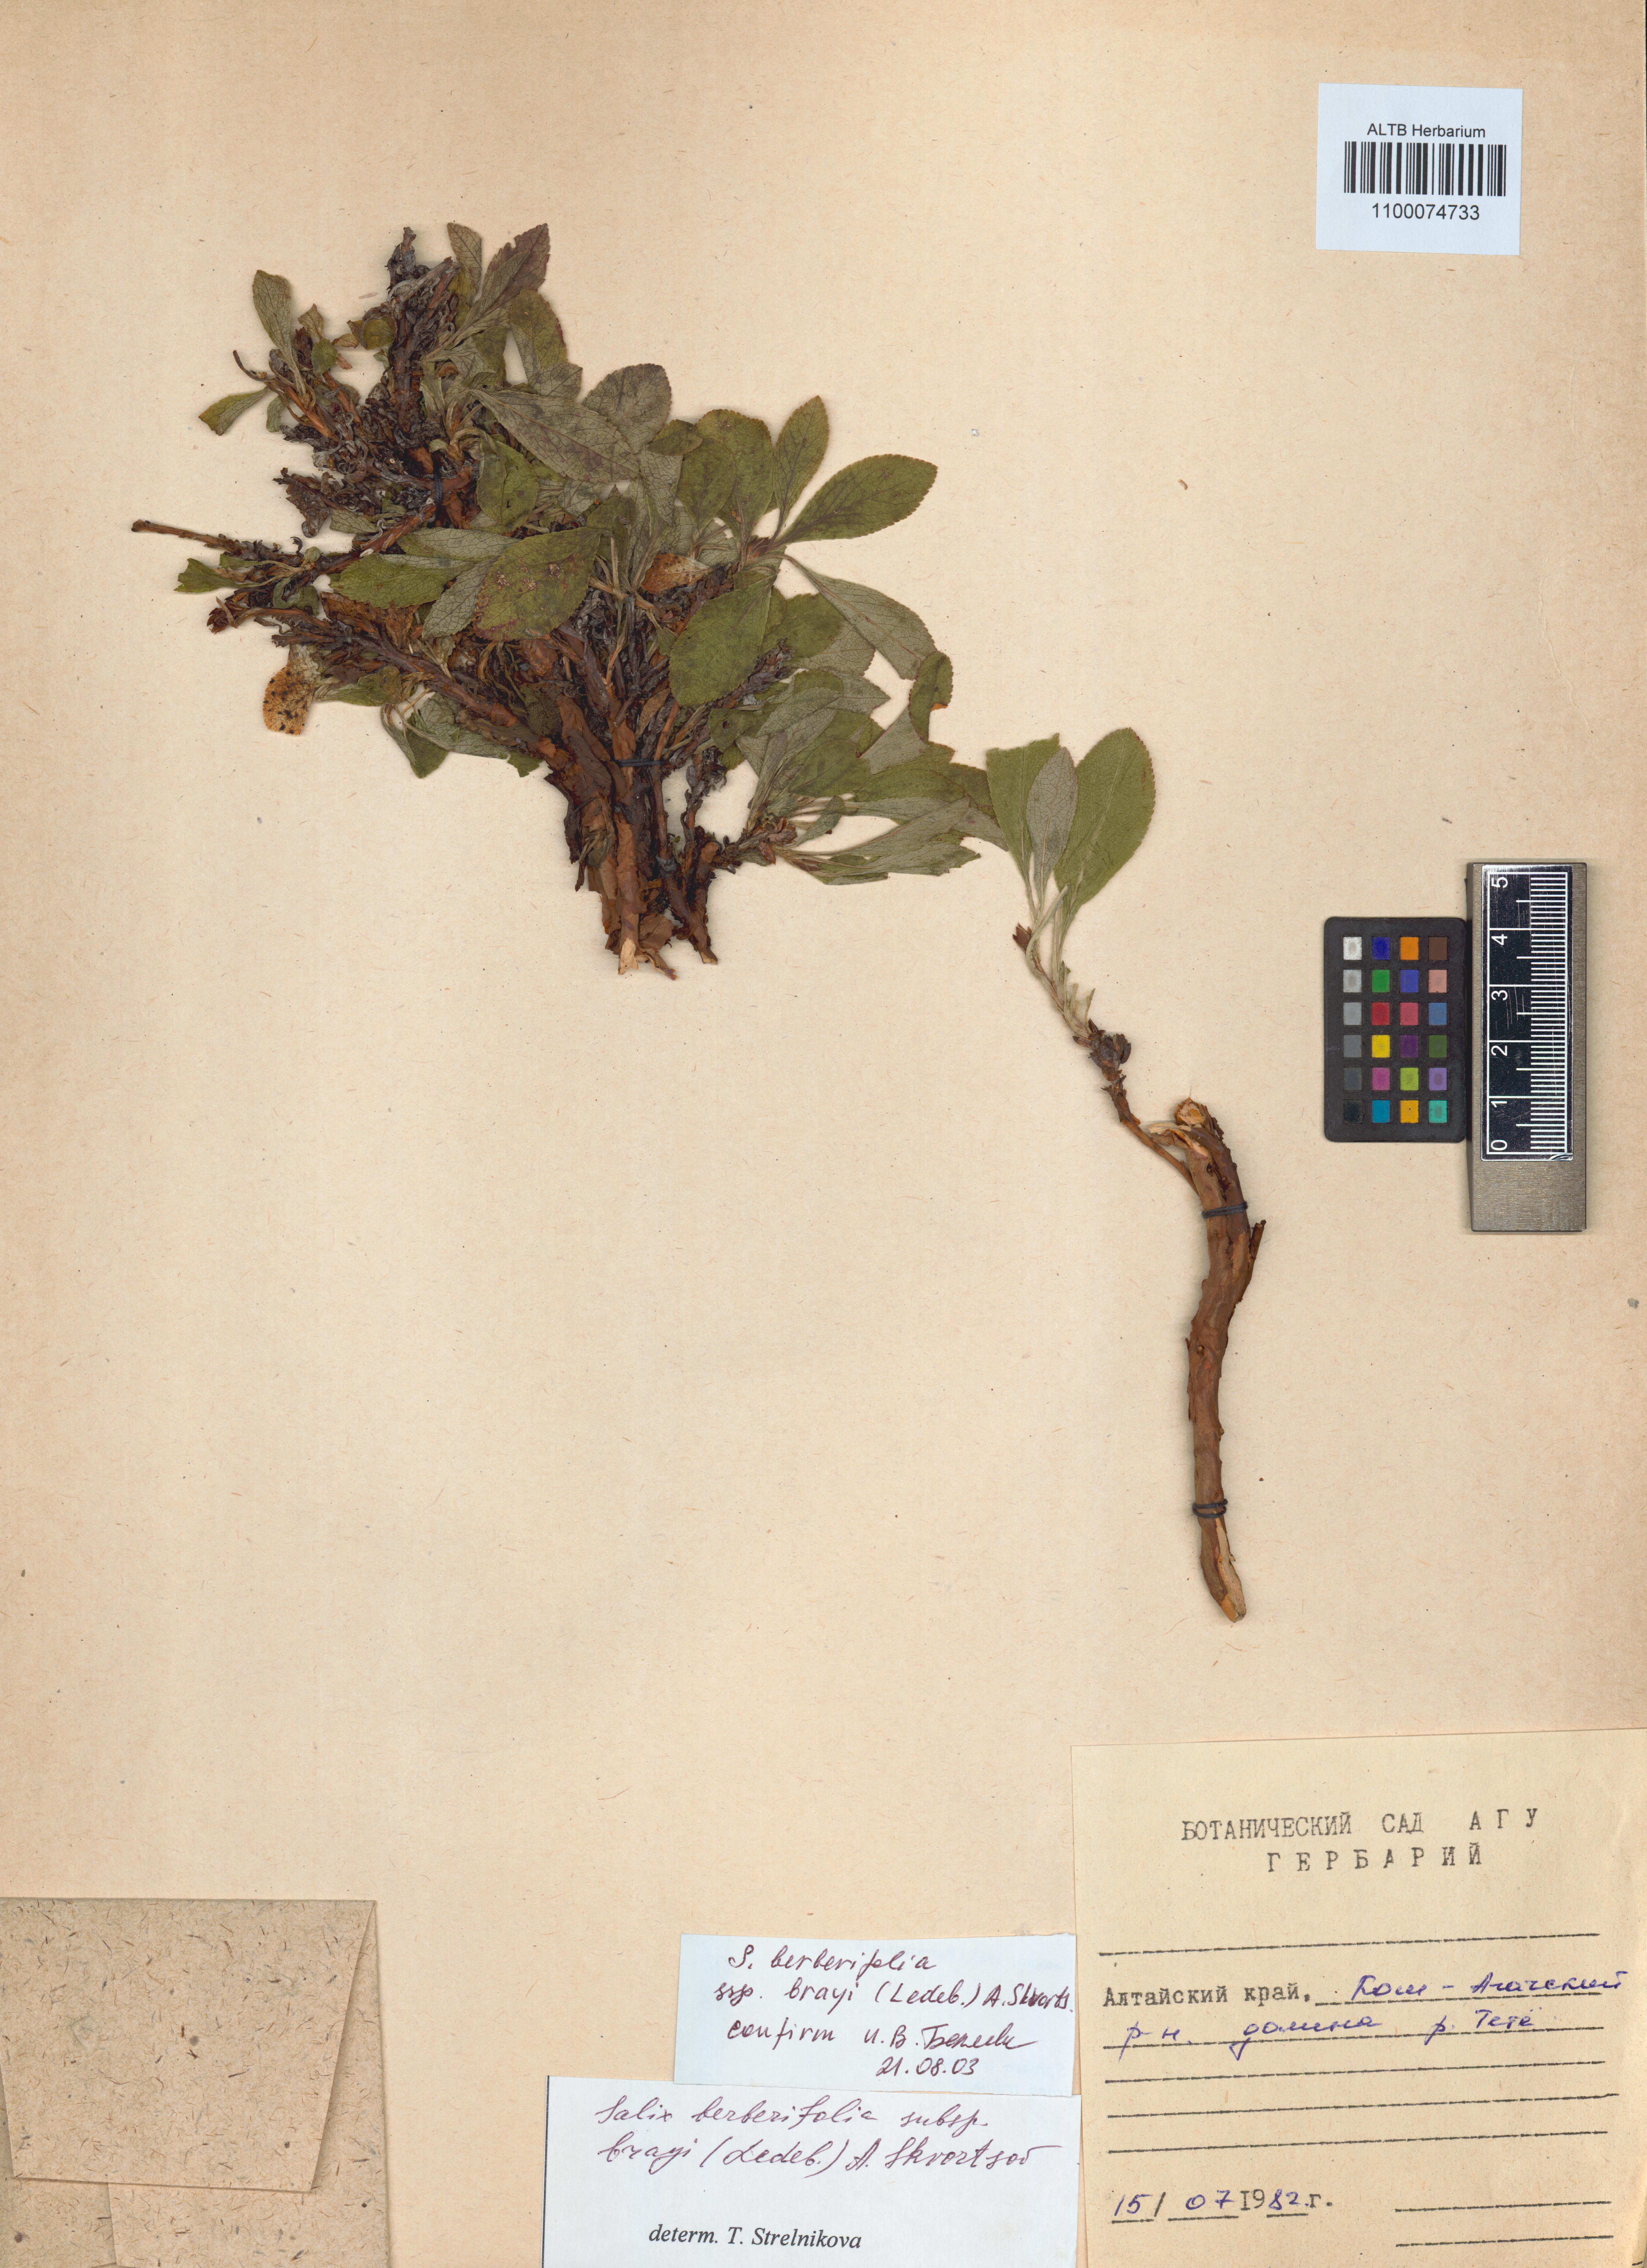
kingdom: Plantae
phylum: Tracheophyta
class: Magnoliopsida
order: Malpighiales
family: Salicaceae
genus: Salix
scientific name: Salix berberifolia
